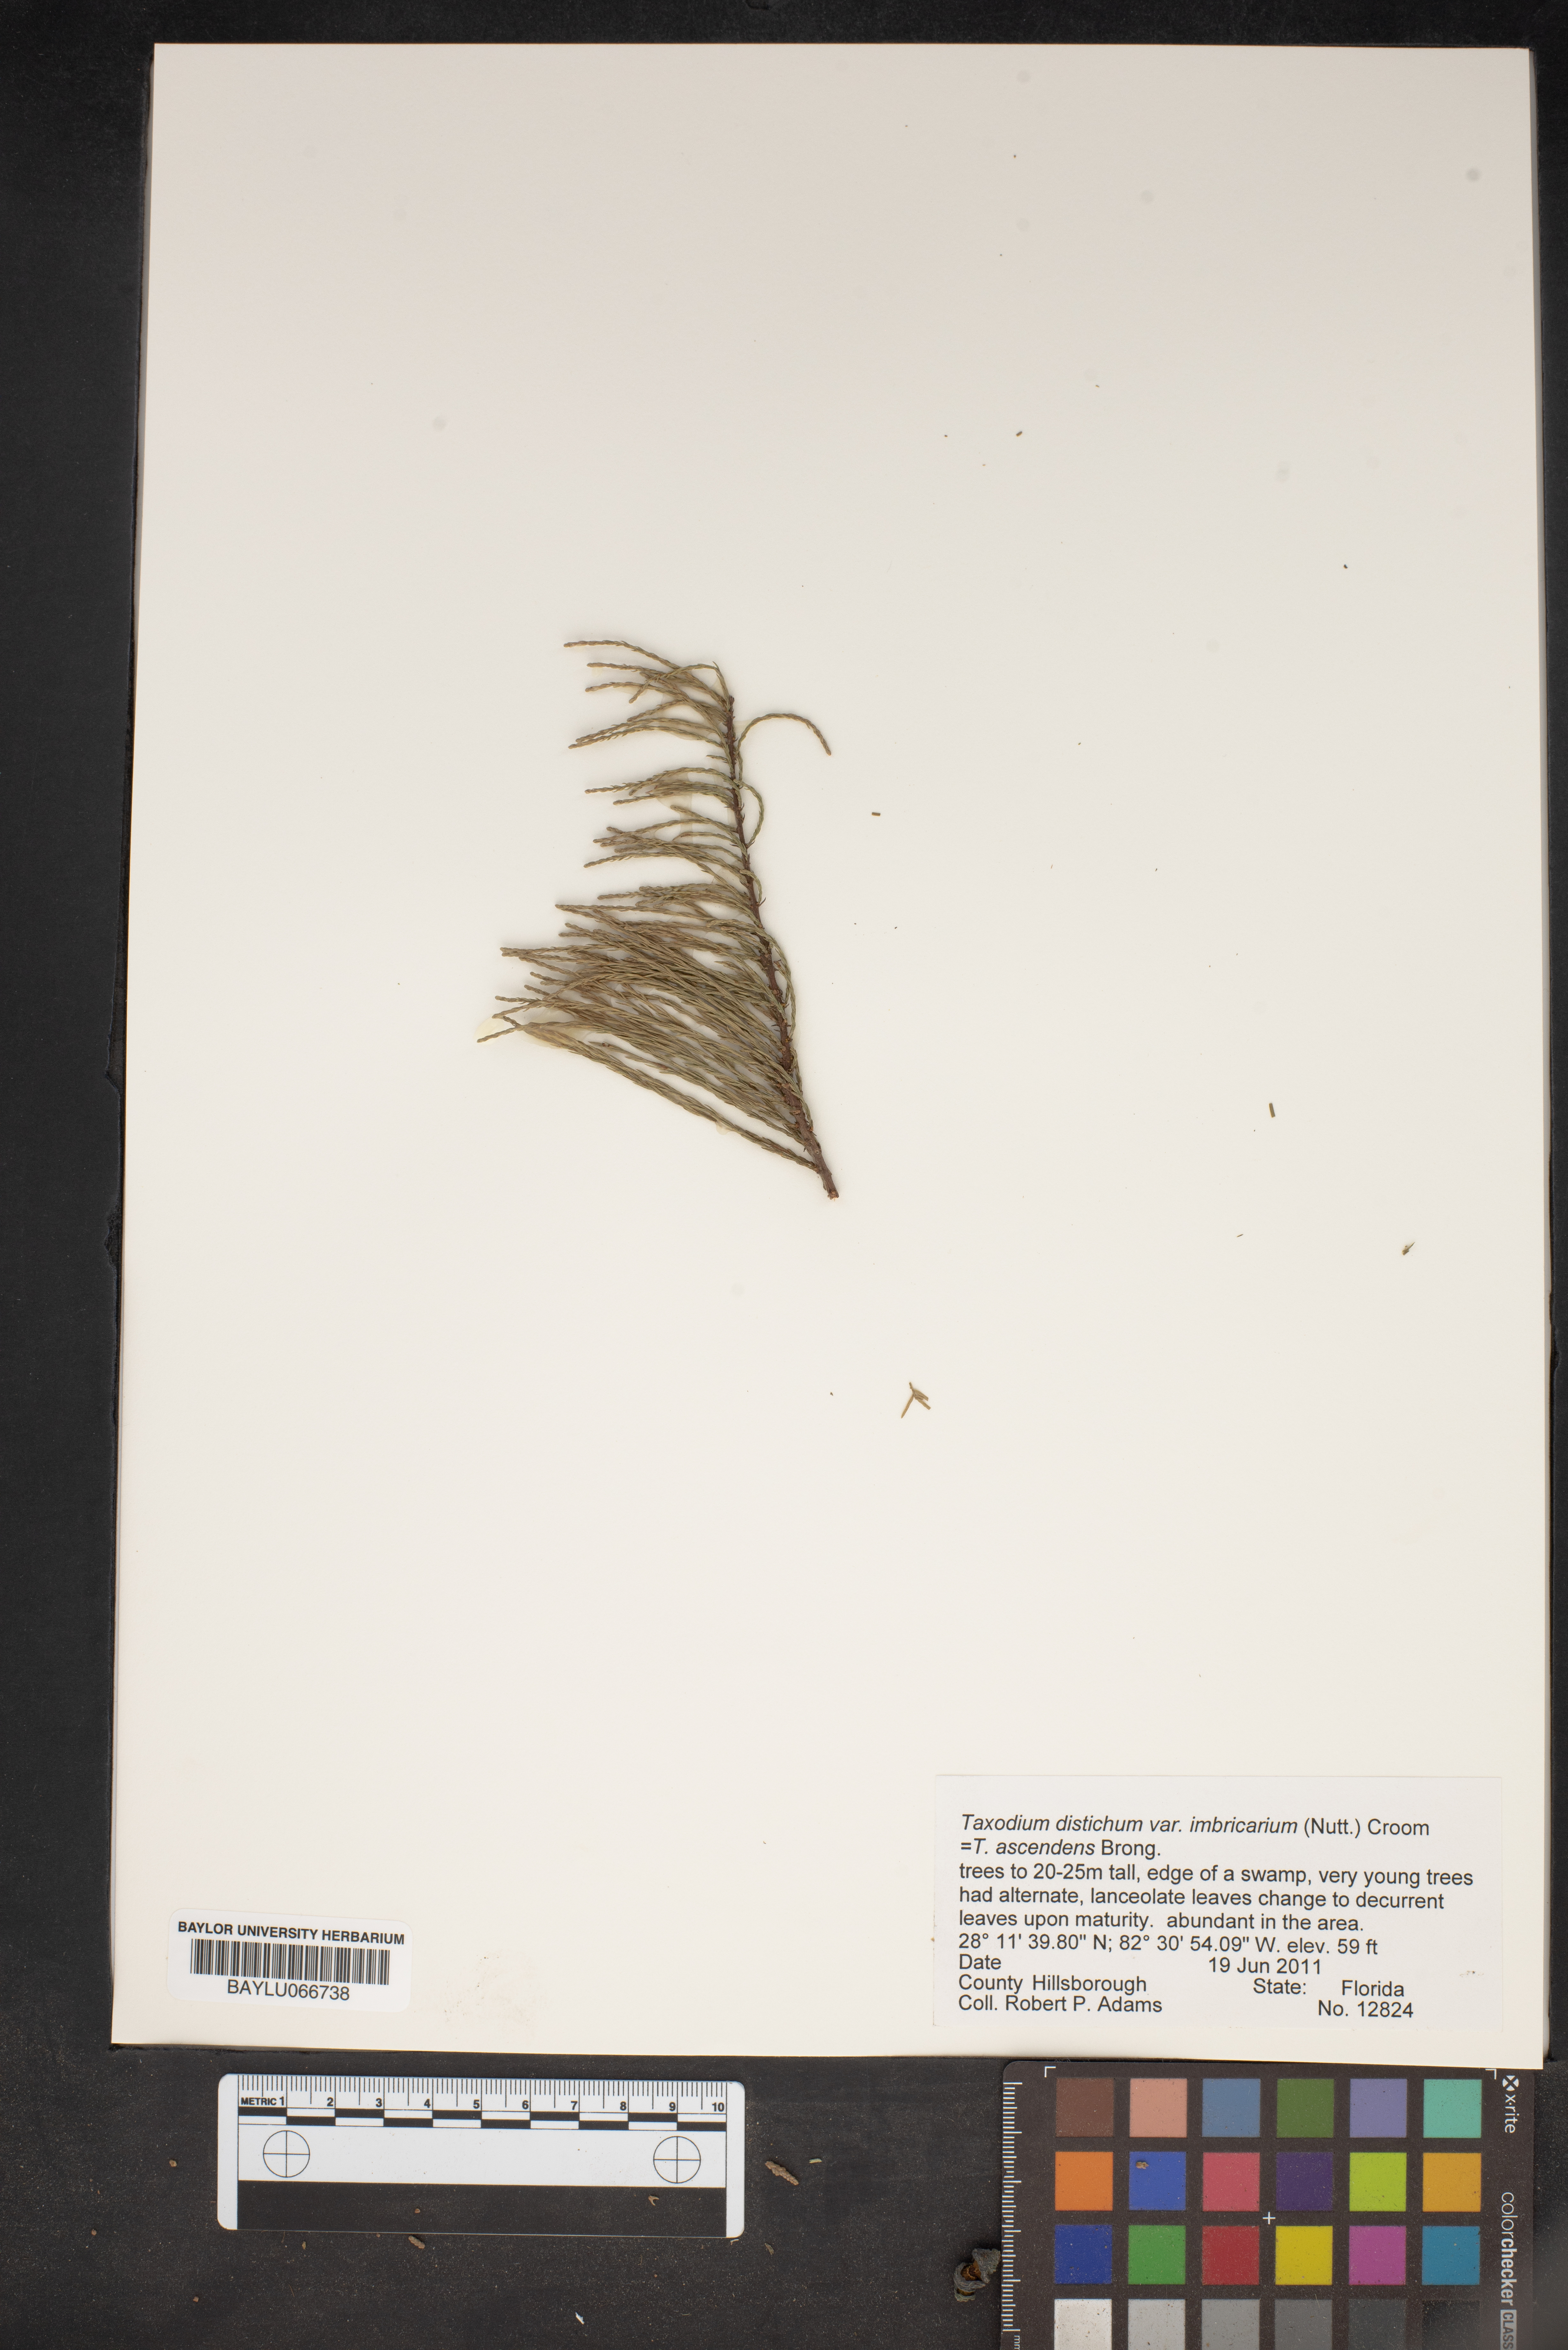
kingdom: Plantae
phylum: Tracheophyta
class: Pinopsida
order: Pinales
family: Cupressaceae
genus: Taxodium
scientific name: Taxodium distichum
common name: Bald cypress
